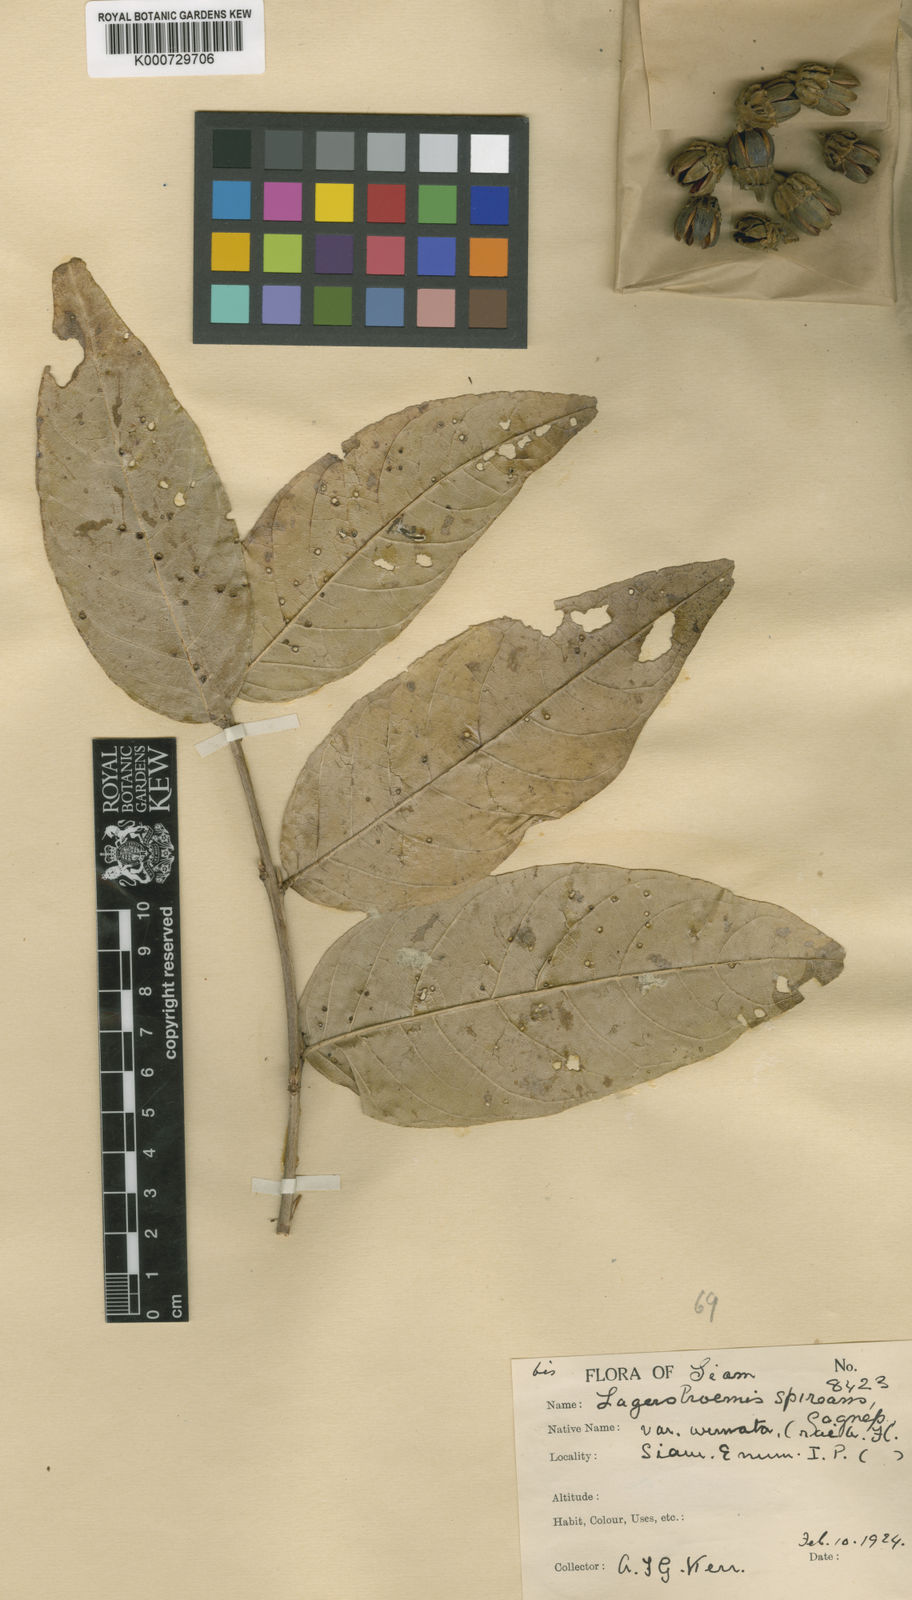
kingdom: Plantae
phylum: Tracheophyta
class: Magnoliopsida
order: Myrtales
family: Lythraceae
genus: Lagerstroemia
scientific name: Lagerstroemia spireana
